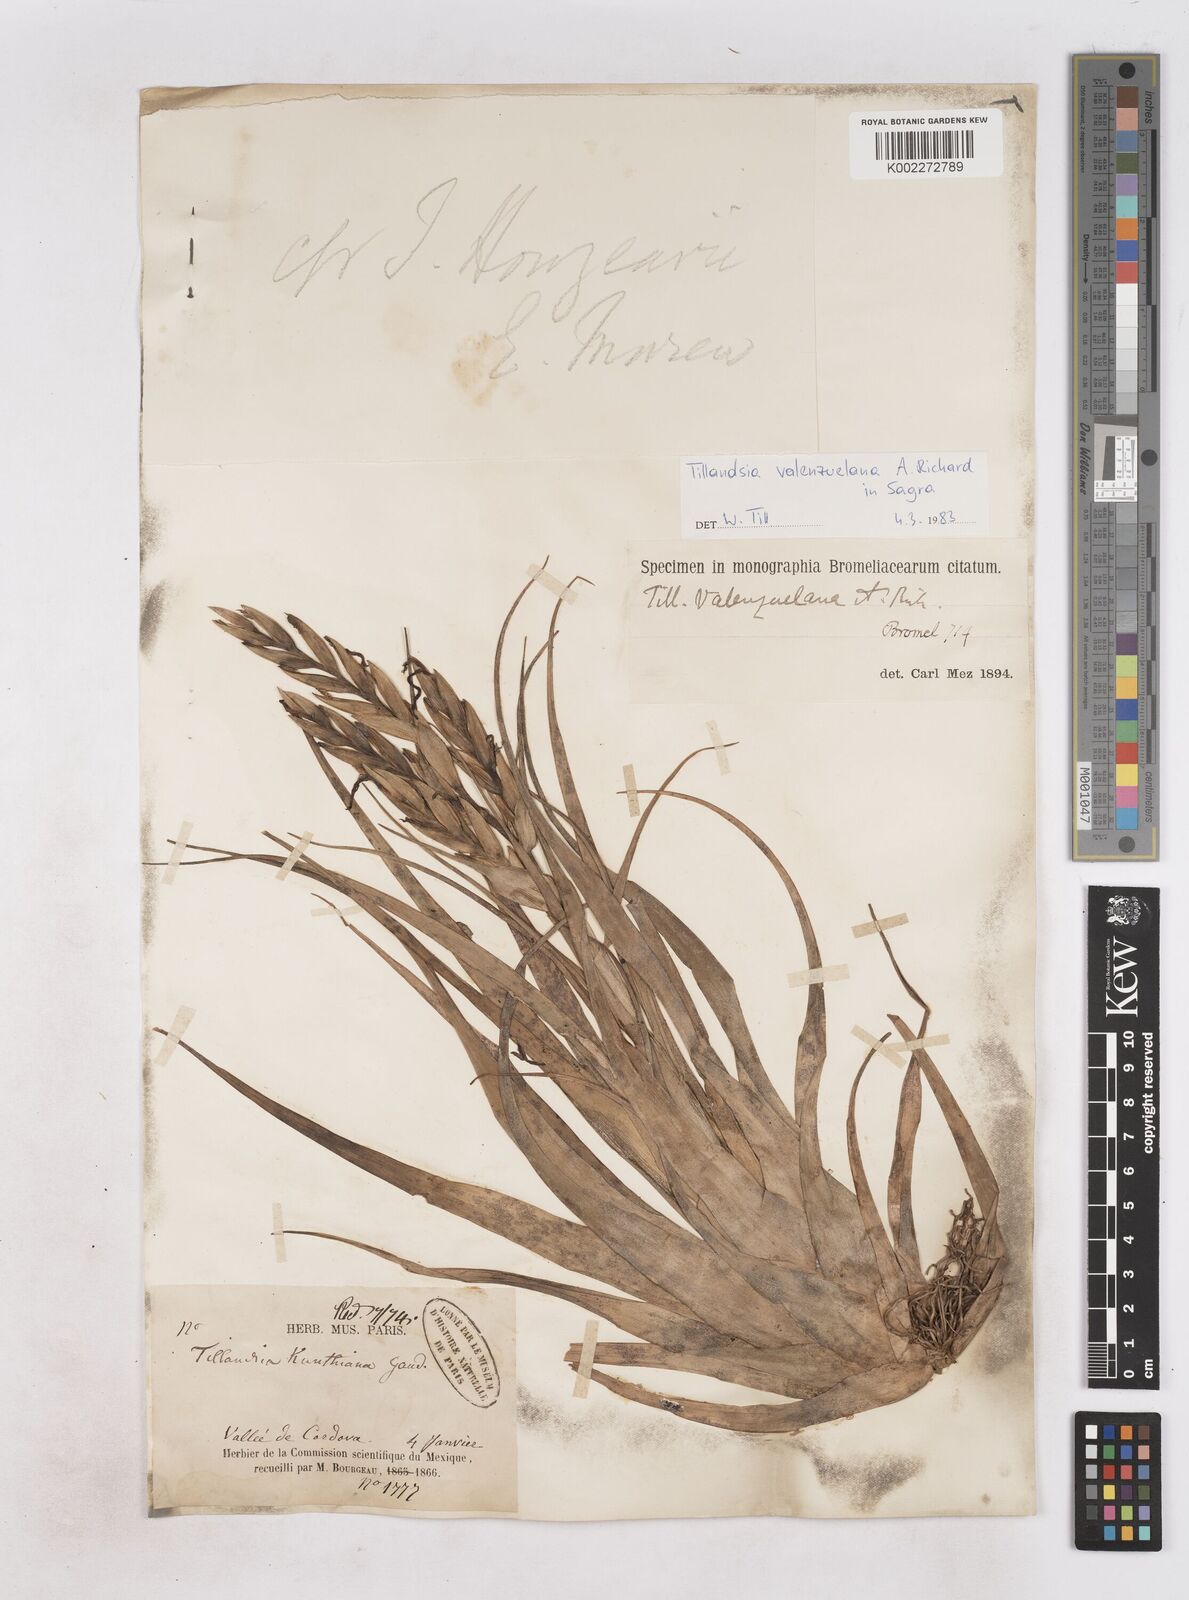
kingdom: Plantae
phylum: Tracheophyta
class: Liliopsida
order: Poales
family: Bromeliaceae
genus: Tillandsia
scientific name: Tillandsia variabilis
